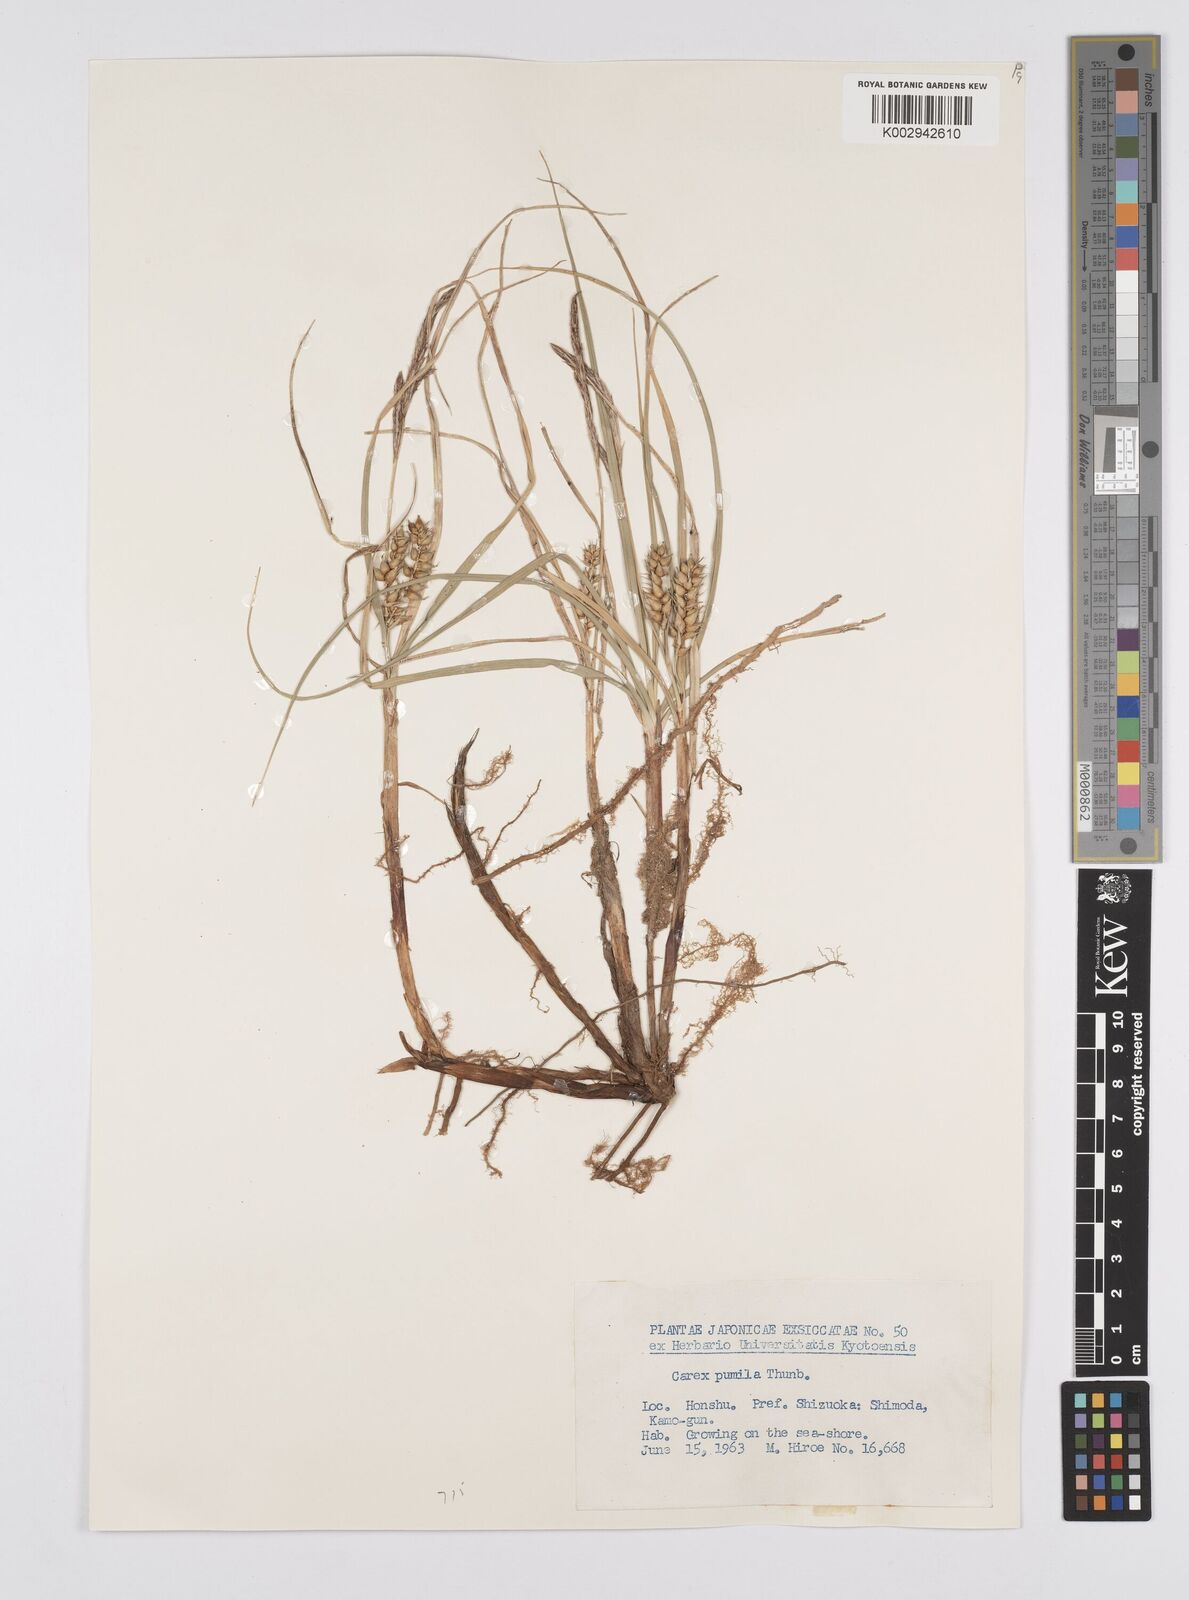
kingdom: Plantae
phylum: Tracheophyta
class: Liliopsida
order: Poales
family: Cyperaceae
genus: Carex
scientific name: Carex pumila
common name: Dwarf sedge
